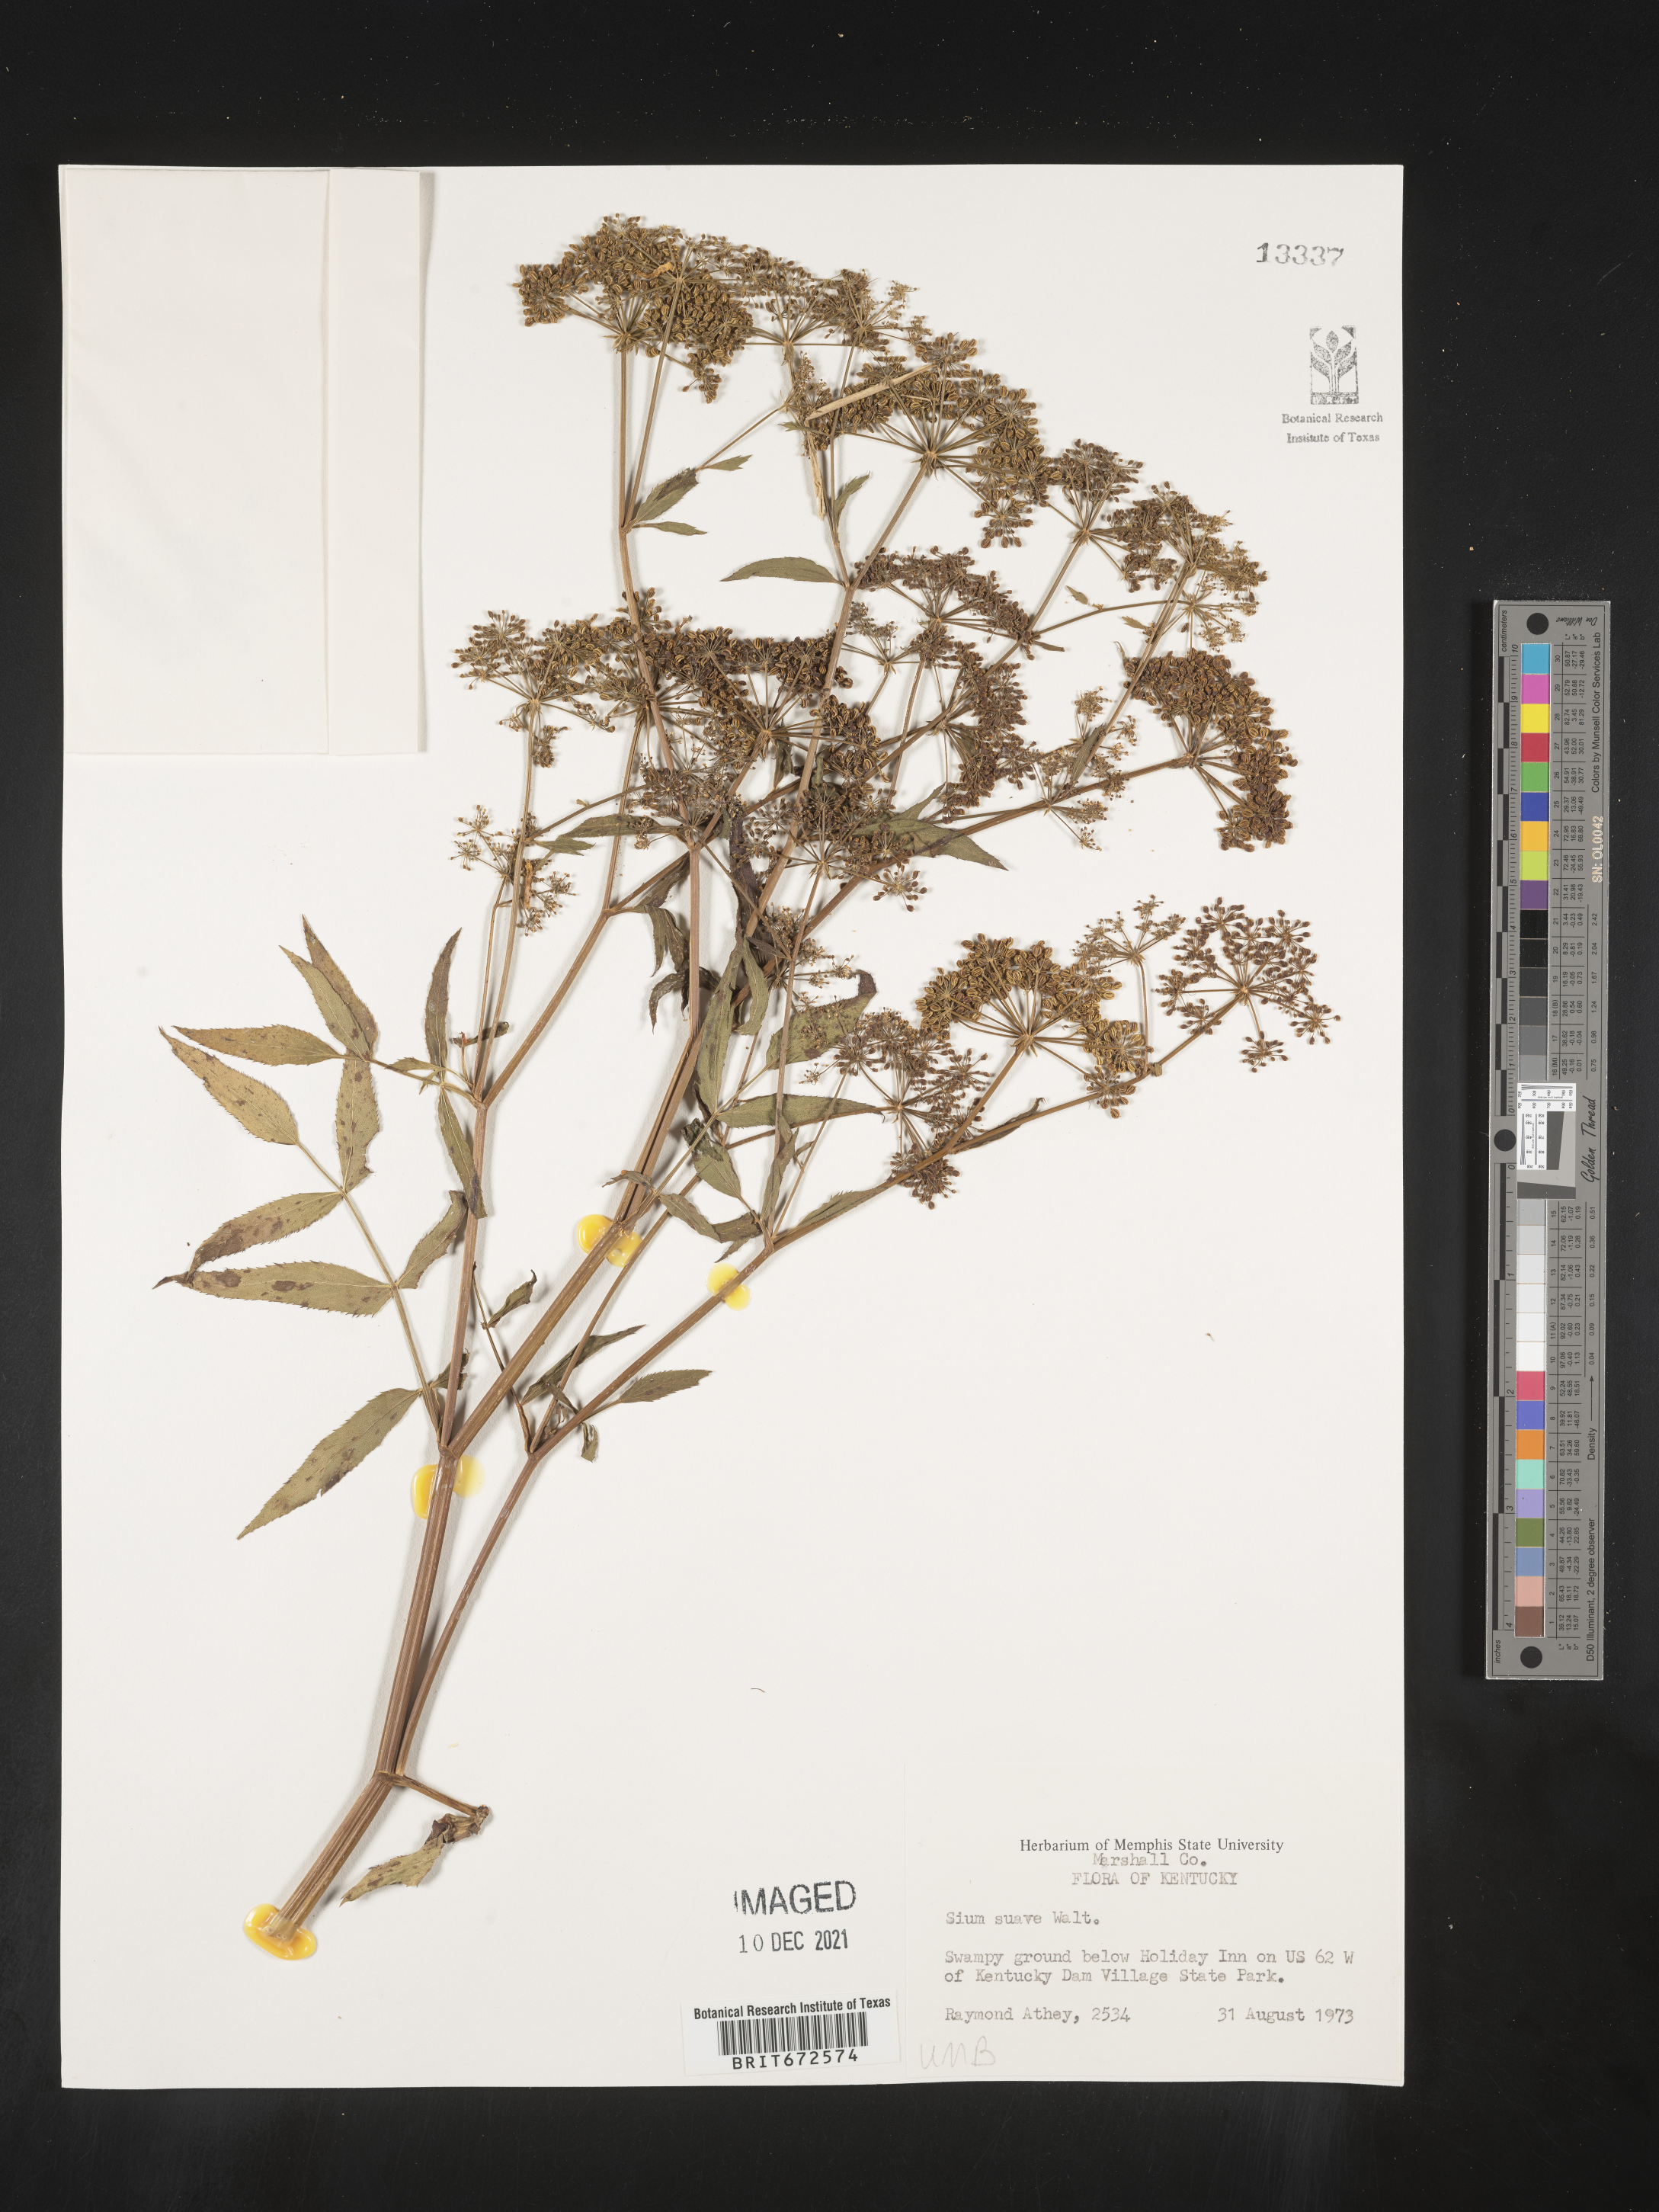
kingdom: Plantae
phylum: Tracheophyta
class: Magnoliopsida
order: Apiales
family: Apiaceae
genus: Sium
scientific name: Sium suave
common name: Hemlock water-parsnip
